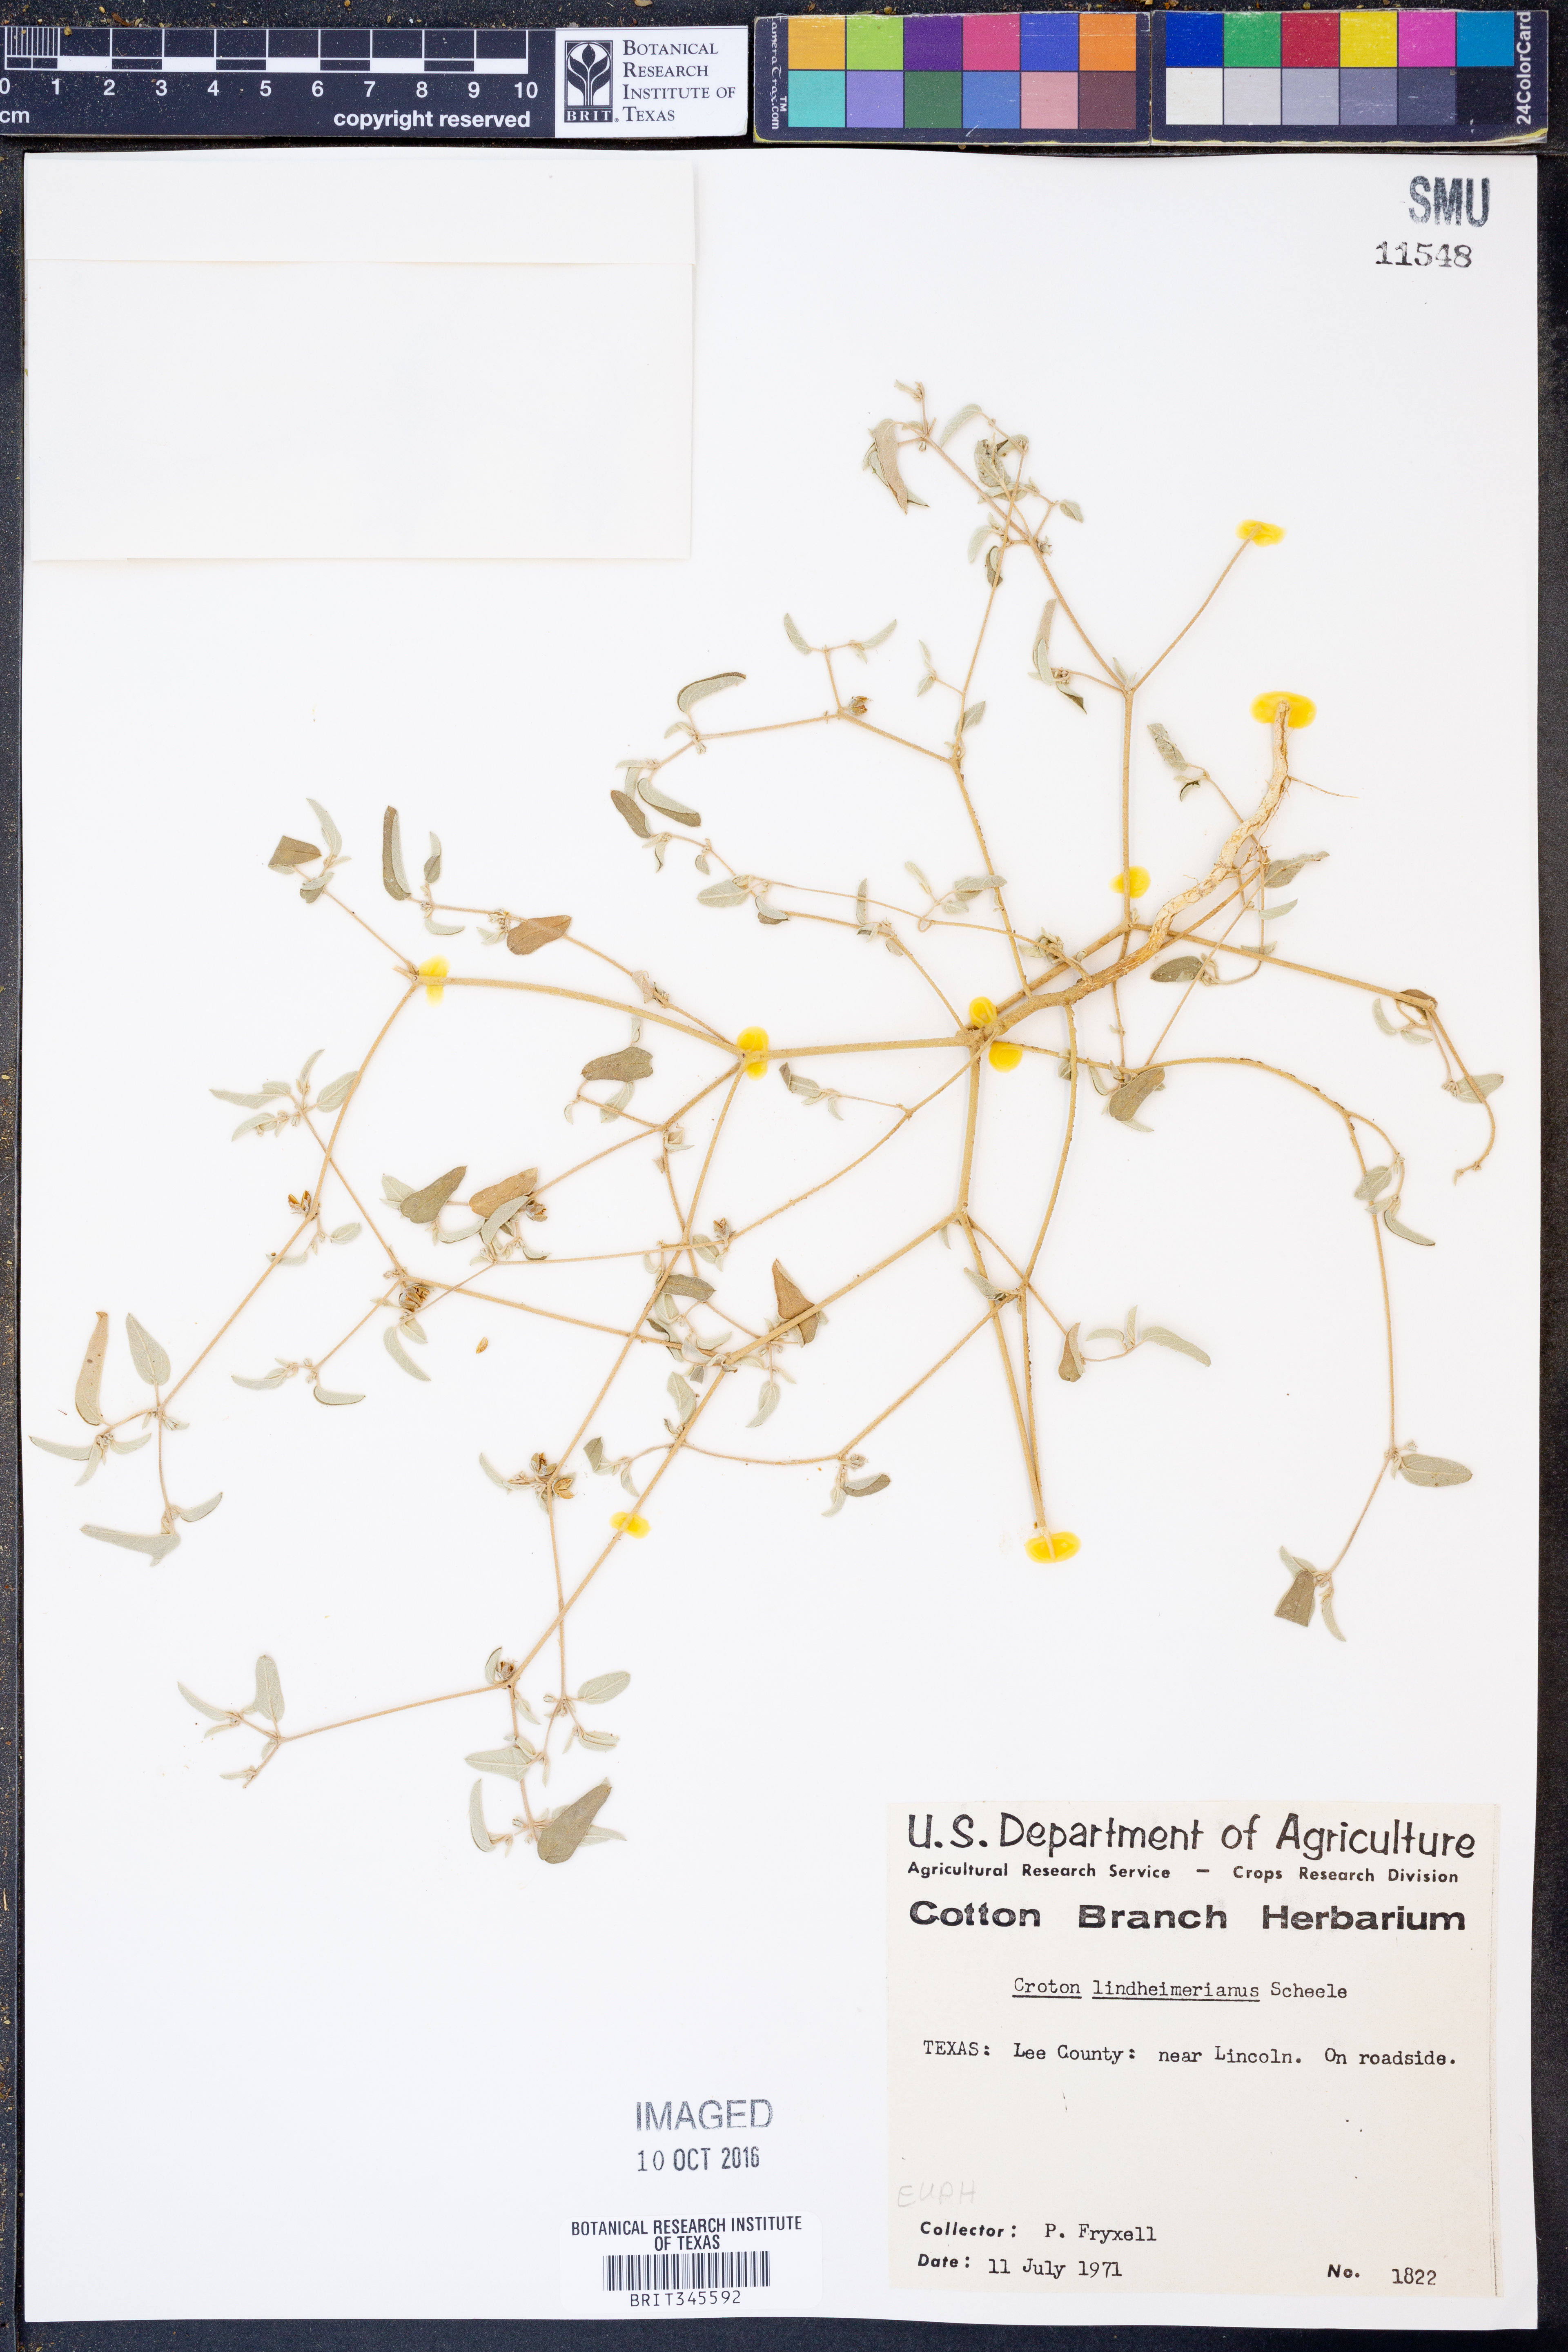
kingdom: Plantae
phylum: Tracheophyta
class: Magnoliopsida
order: Malpighiales
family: Euphorbiaceae
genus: Croton
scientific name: Croton lindheimerianus
